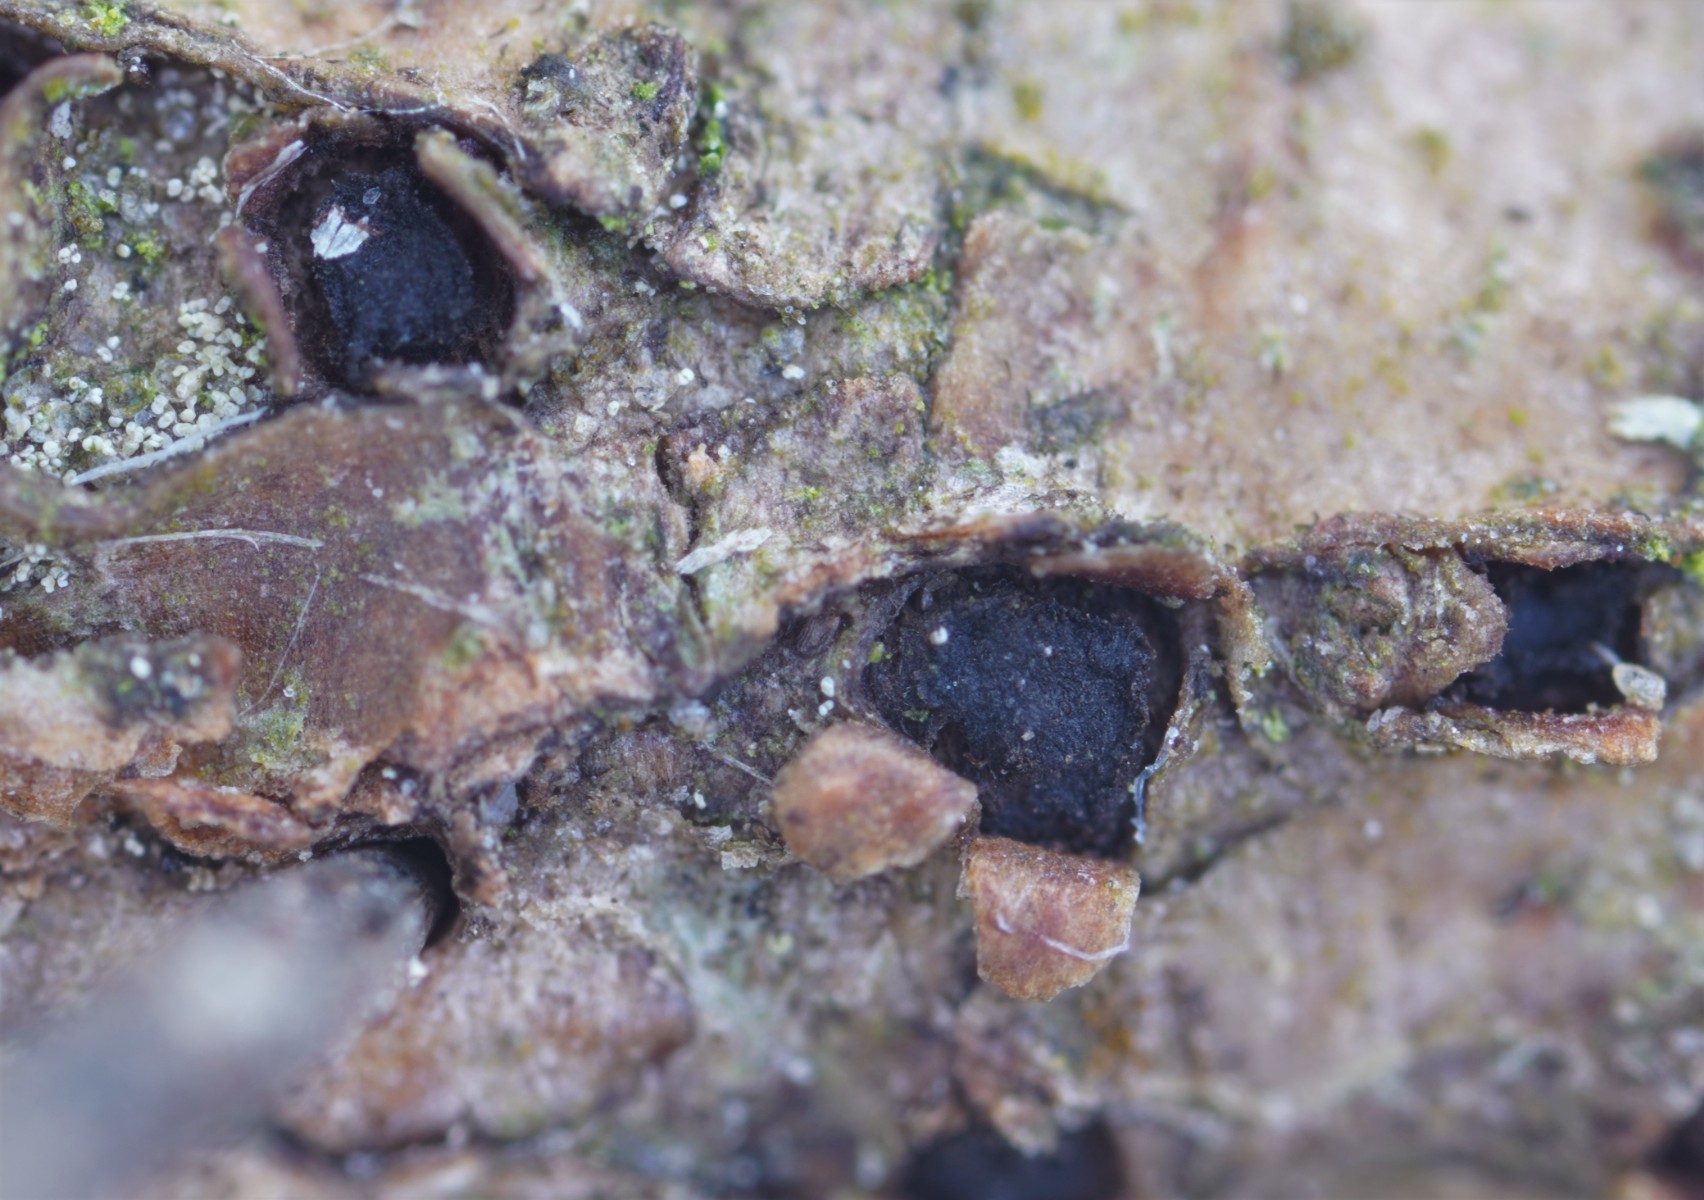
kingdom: Fungi
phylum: Ascomycota
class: Sordariomycetes
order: Diaporthales
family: Coryneaceae
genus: Pseudovalsa
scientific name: Pseudovalsa longipes
